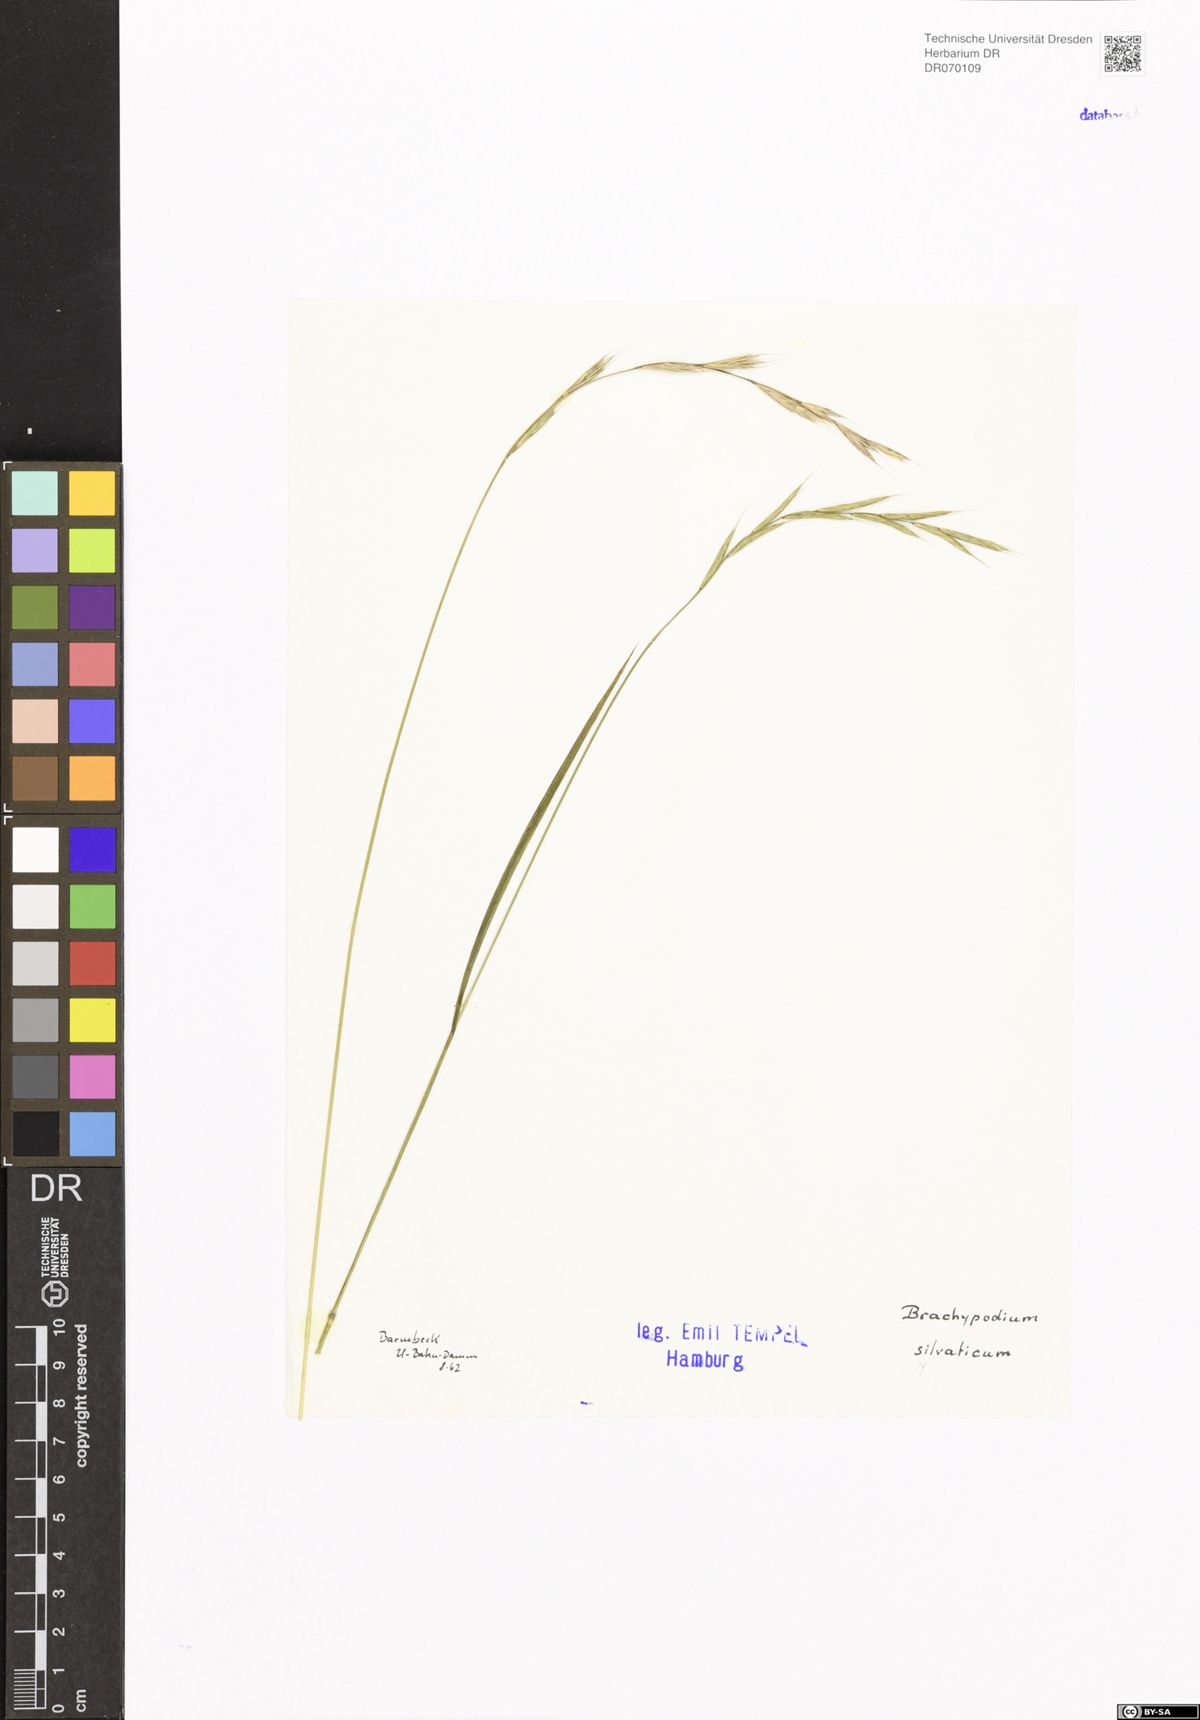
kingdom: Plantae
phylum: Tracheophyta
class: Liliopsida
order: Poales
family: Poaceae
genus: Brachypodium
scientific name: Brachypodium sylvaticum
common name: False-brome
